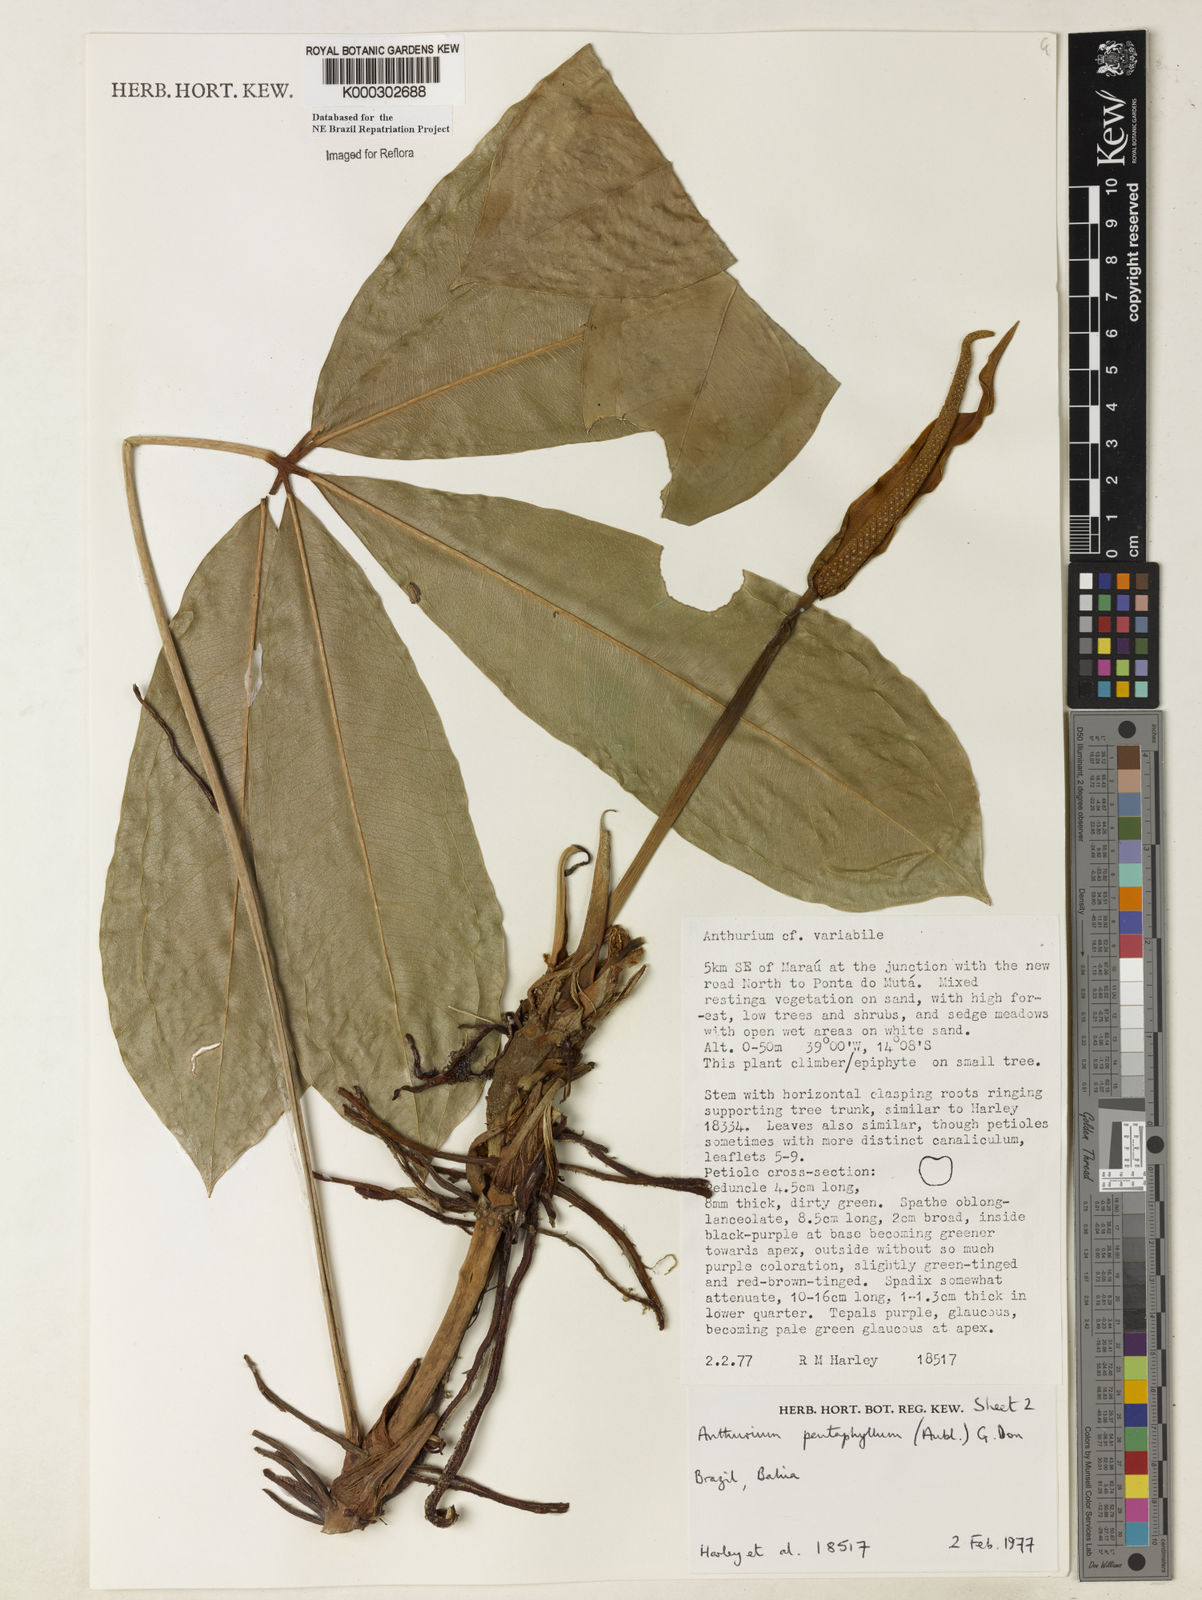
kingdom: Plantae
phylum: Tracheophyta
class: Liliopsida
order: Alismatales
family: Araceae
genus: Anthurium
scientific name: Anthurium pentaphyllum
